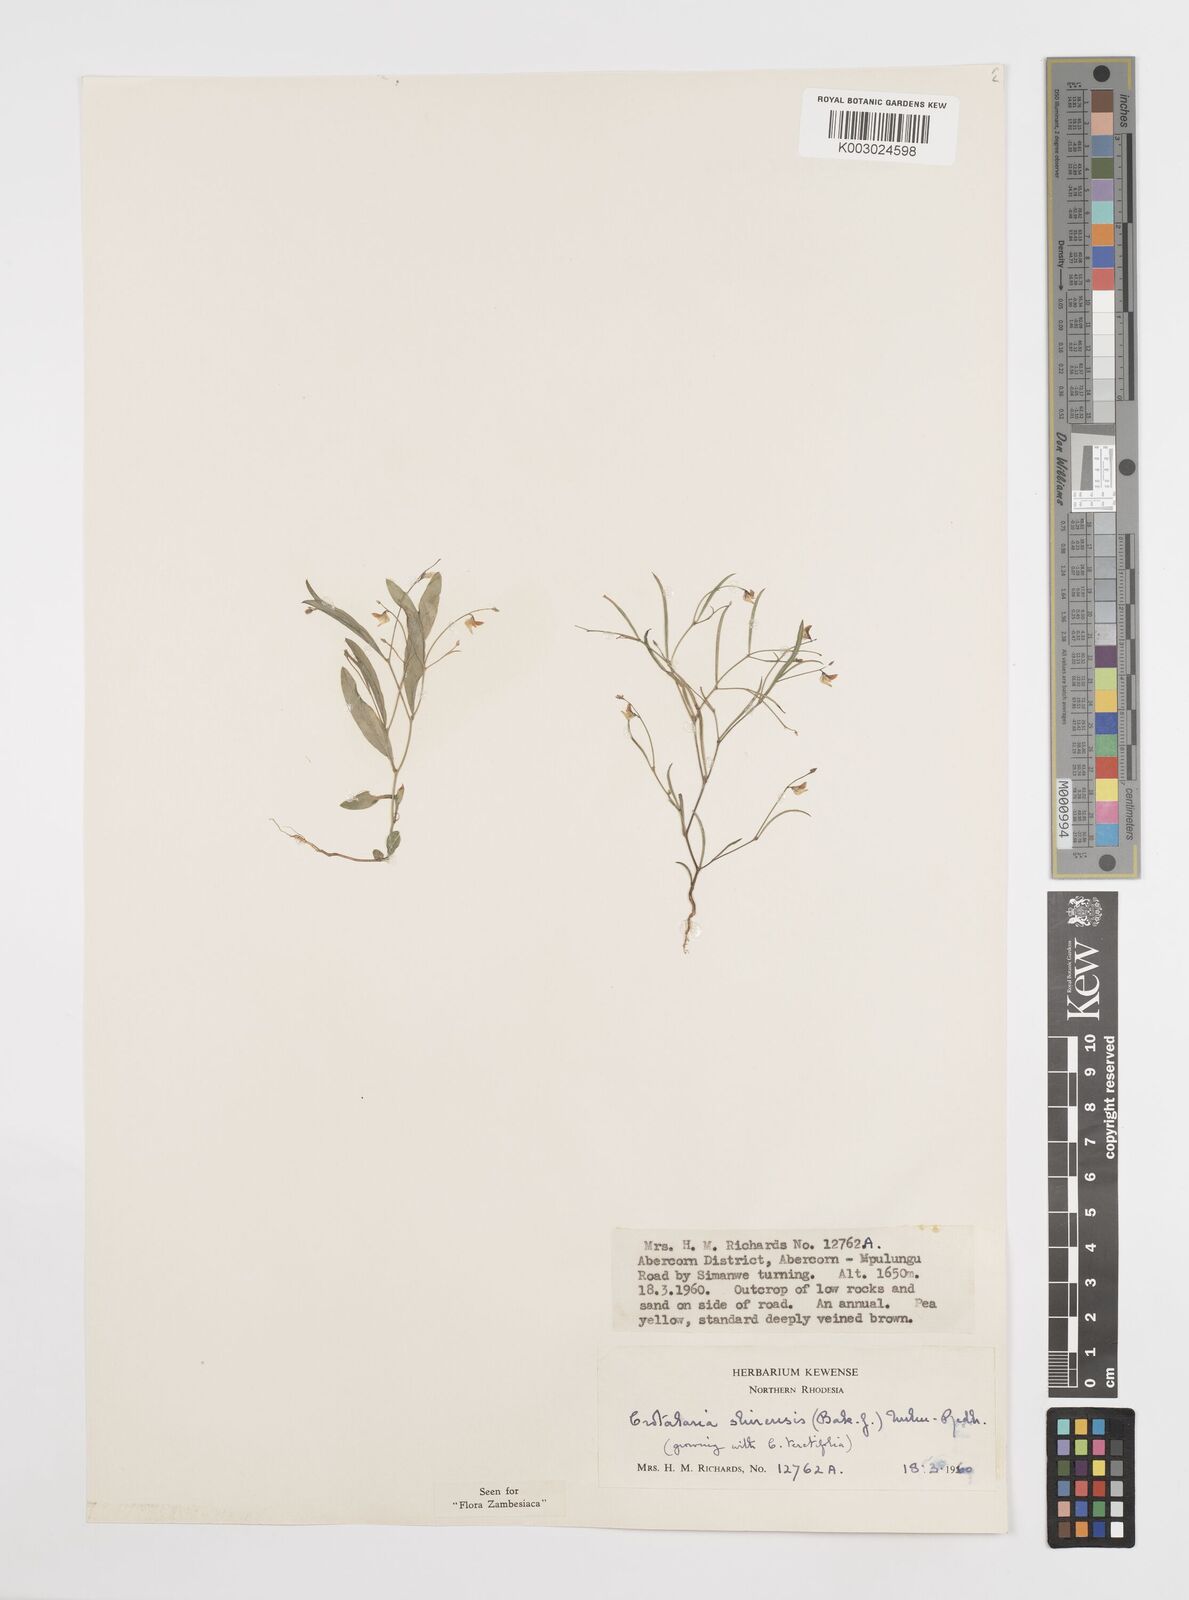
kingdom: Plantae
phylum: Tracheophyta
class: Magnoliopsida
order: Fabales
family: Fabaceae
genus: Crotalaria
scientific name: Crotalaria shirensis
